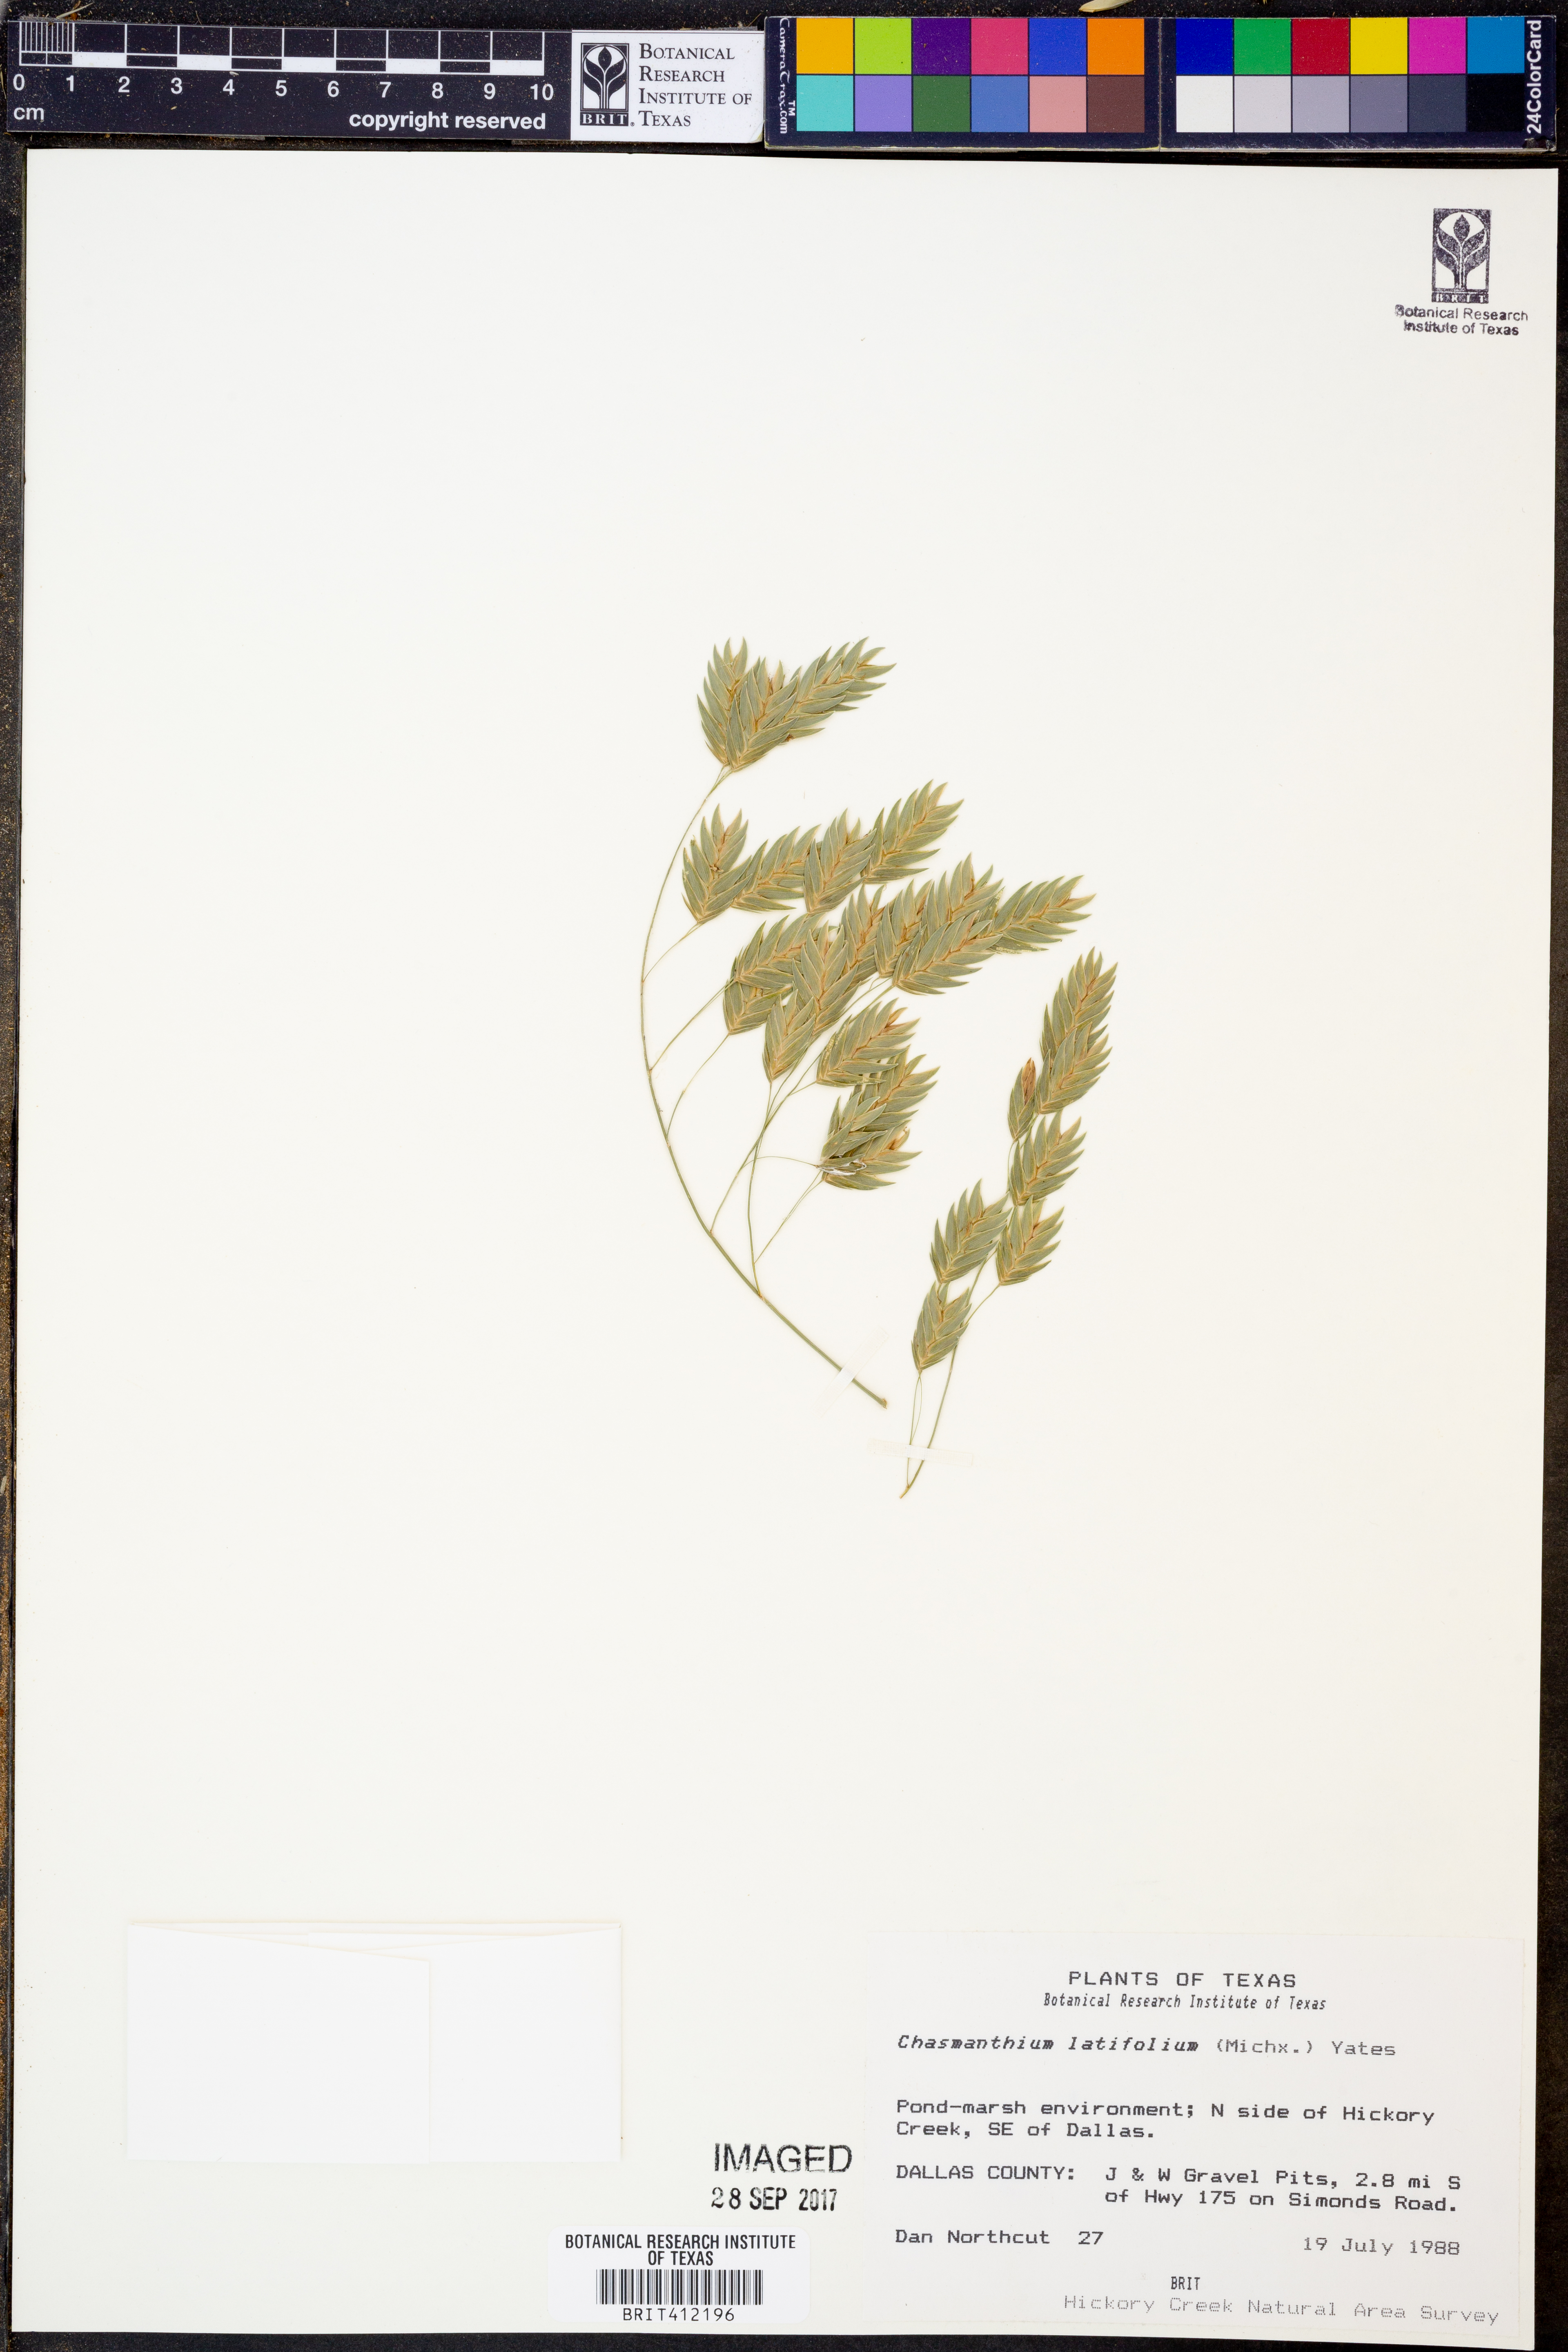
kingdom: Plantae
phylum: Tracheophyta
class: Liliopsida
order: Poales
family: Poaceae
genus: Chasmanthium
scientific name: Chasmanthium latifolium
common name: Broad-leaved chasmanthium
